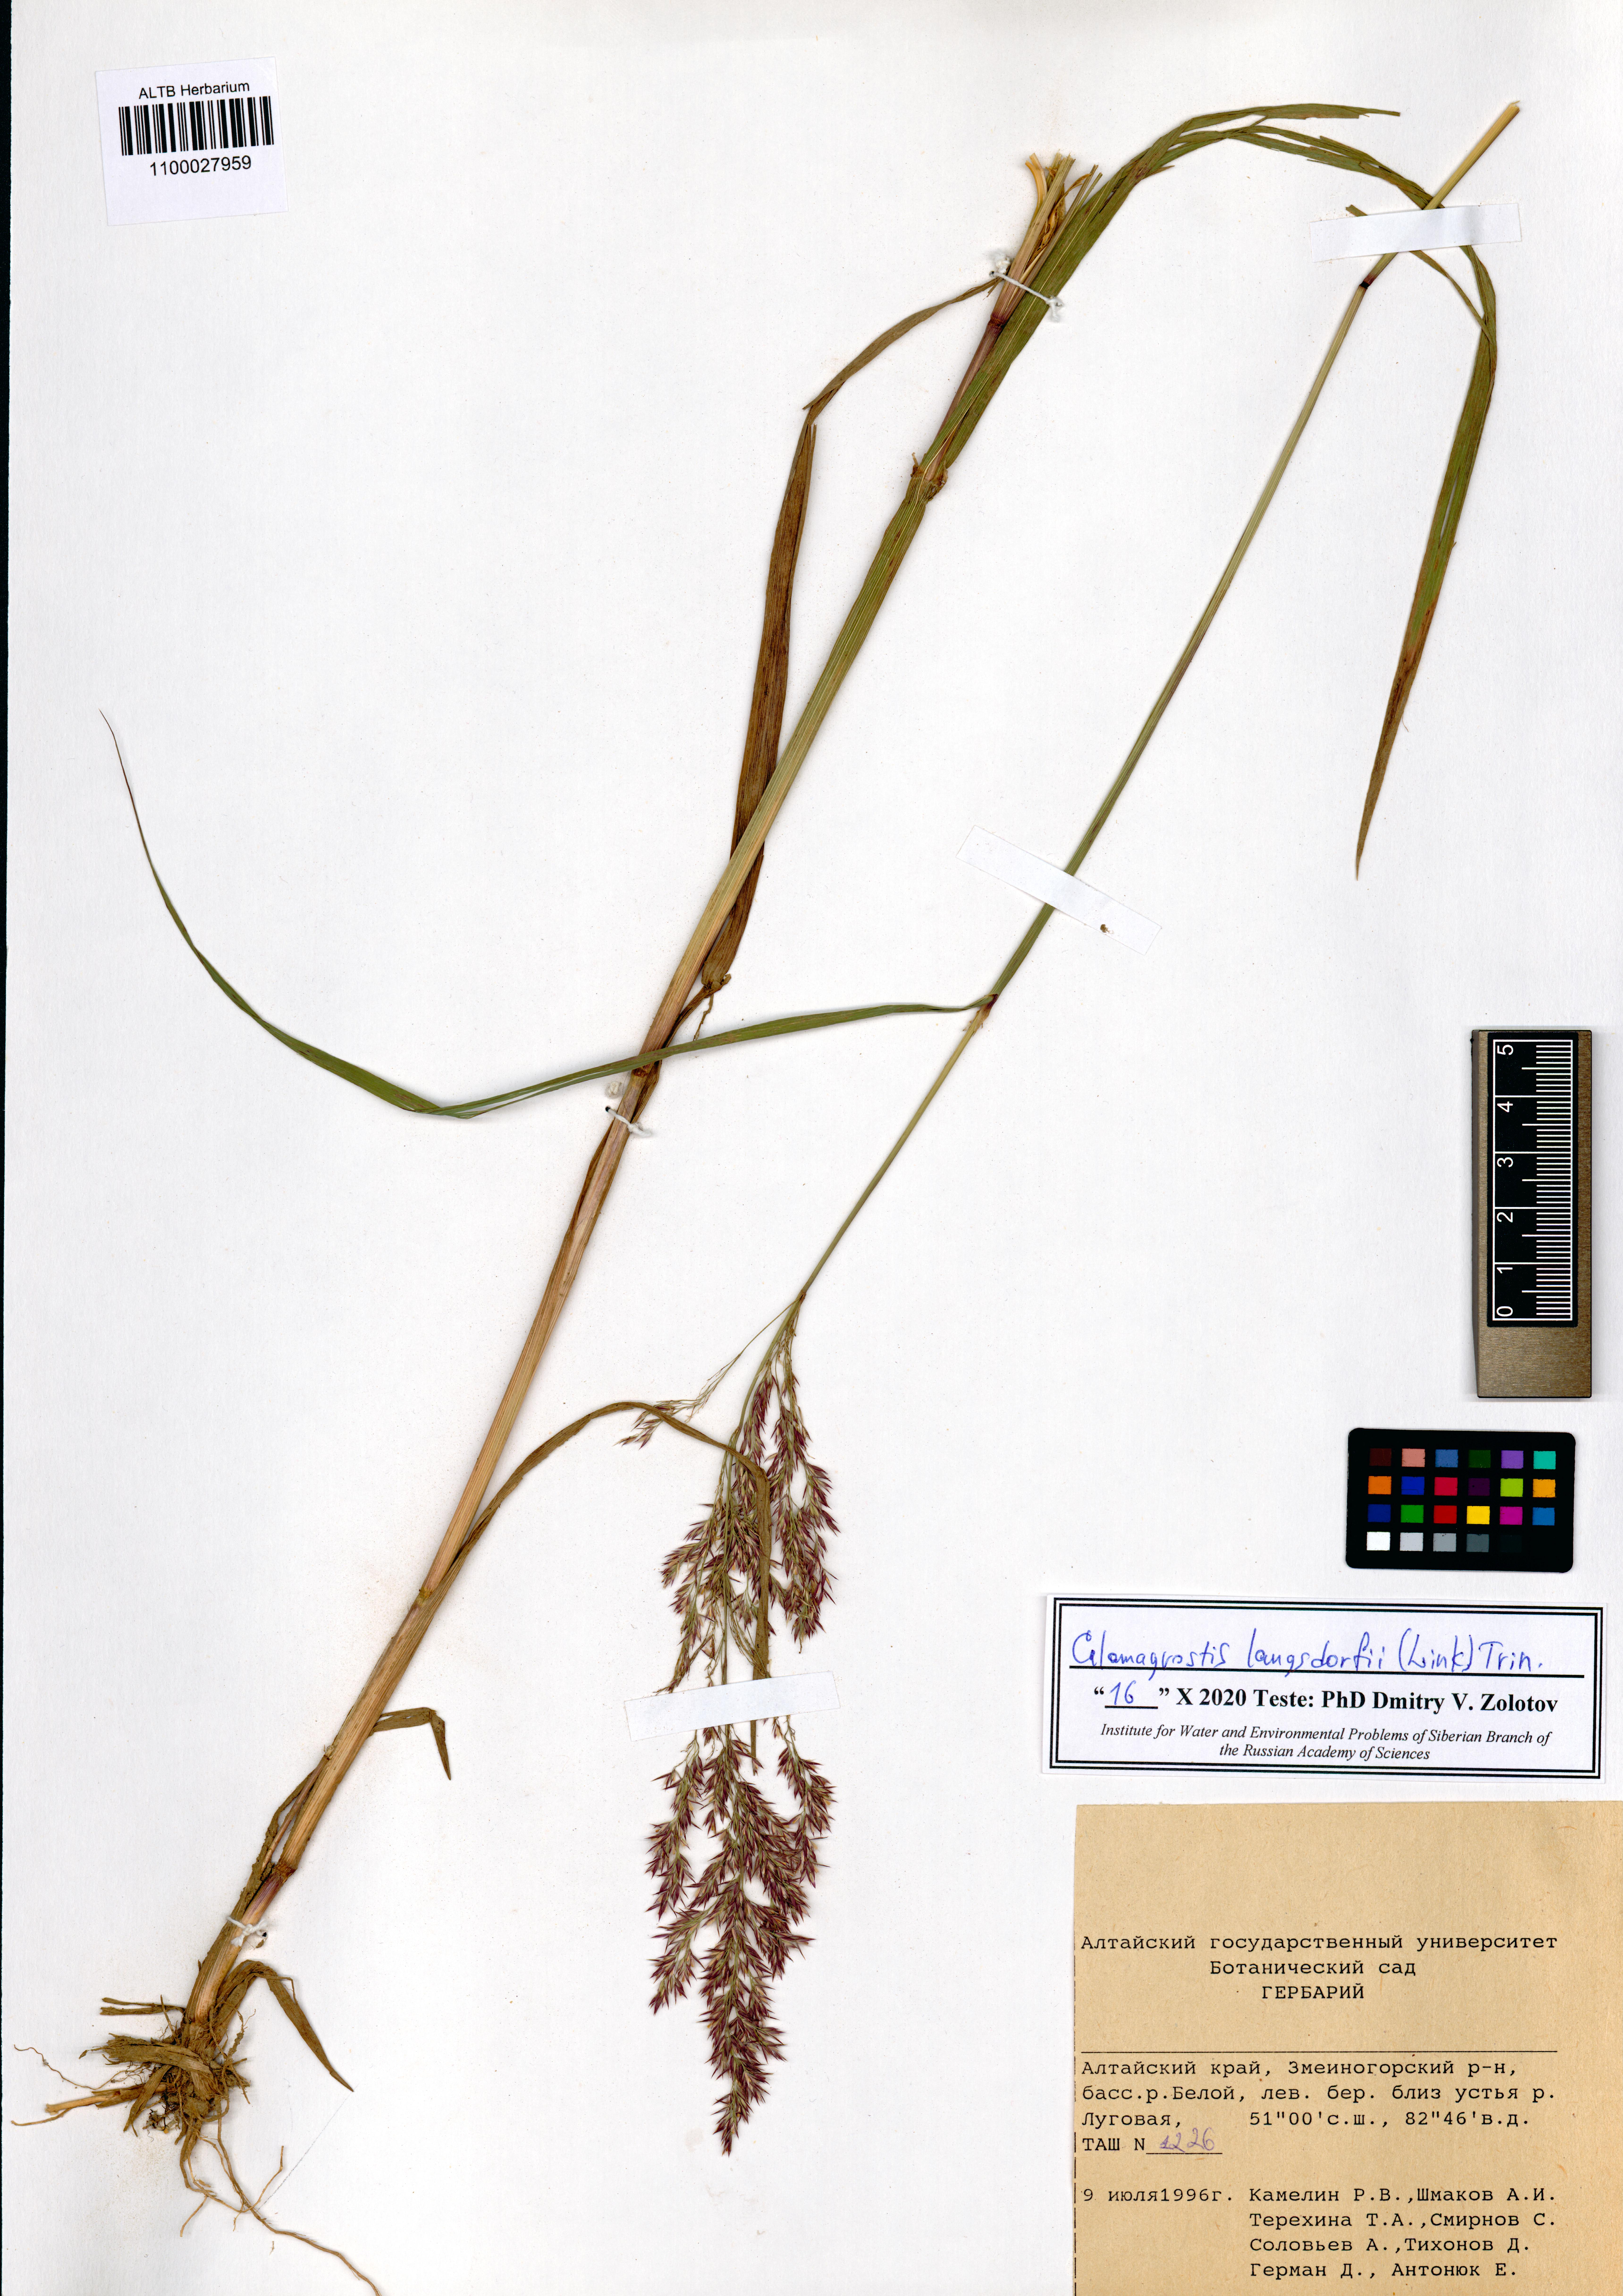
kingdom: Plantae
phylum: Tracheophyta
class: Liliopsida
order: Poales
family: Poaceae
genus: Calamagrostis
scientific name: Calamagrostis purpurea
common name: Scandinavian small-reed
